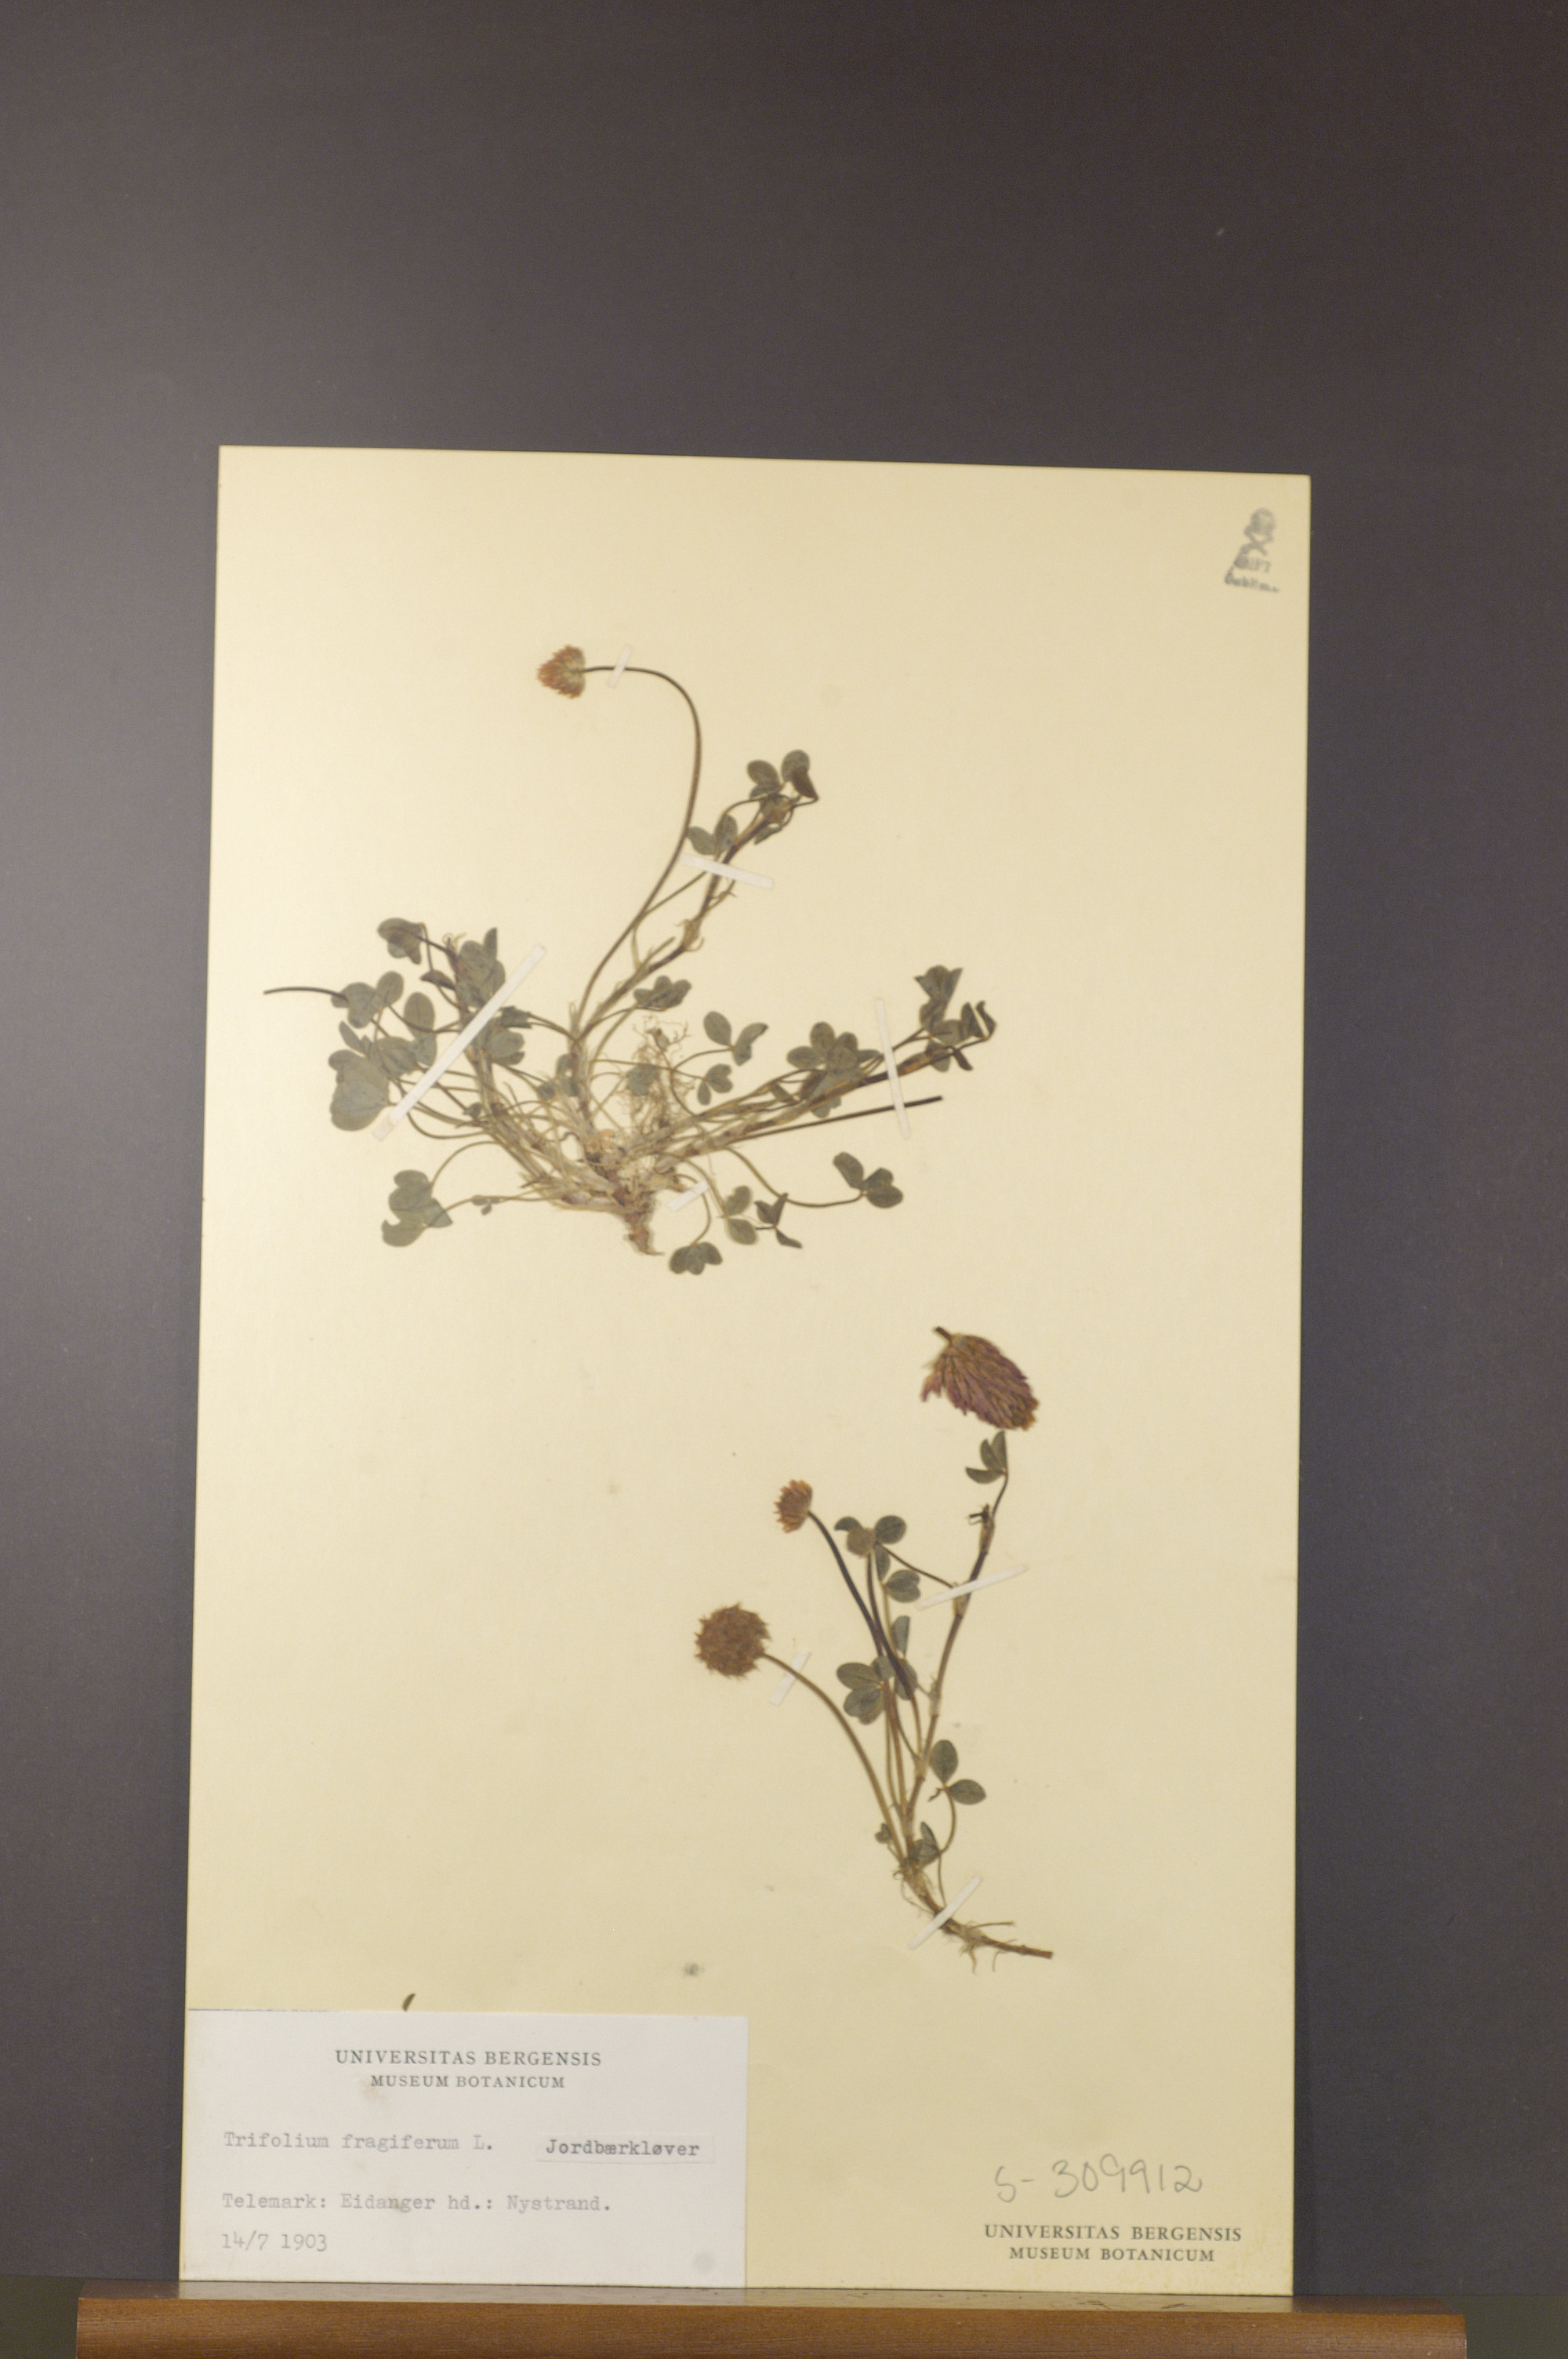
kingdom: Plantae
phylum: Tracheophyta
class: Magnoliopsida
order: Fabales
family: Fabaceae
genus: Trifolium
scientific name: Trifolium fragiferum
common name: Strawberry clover
